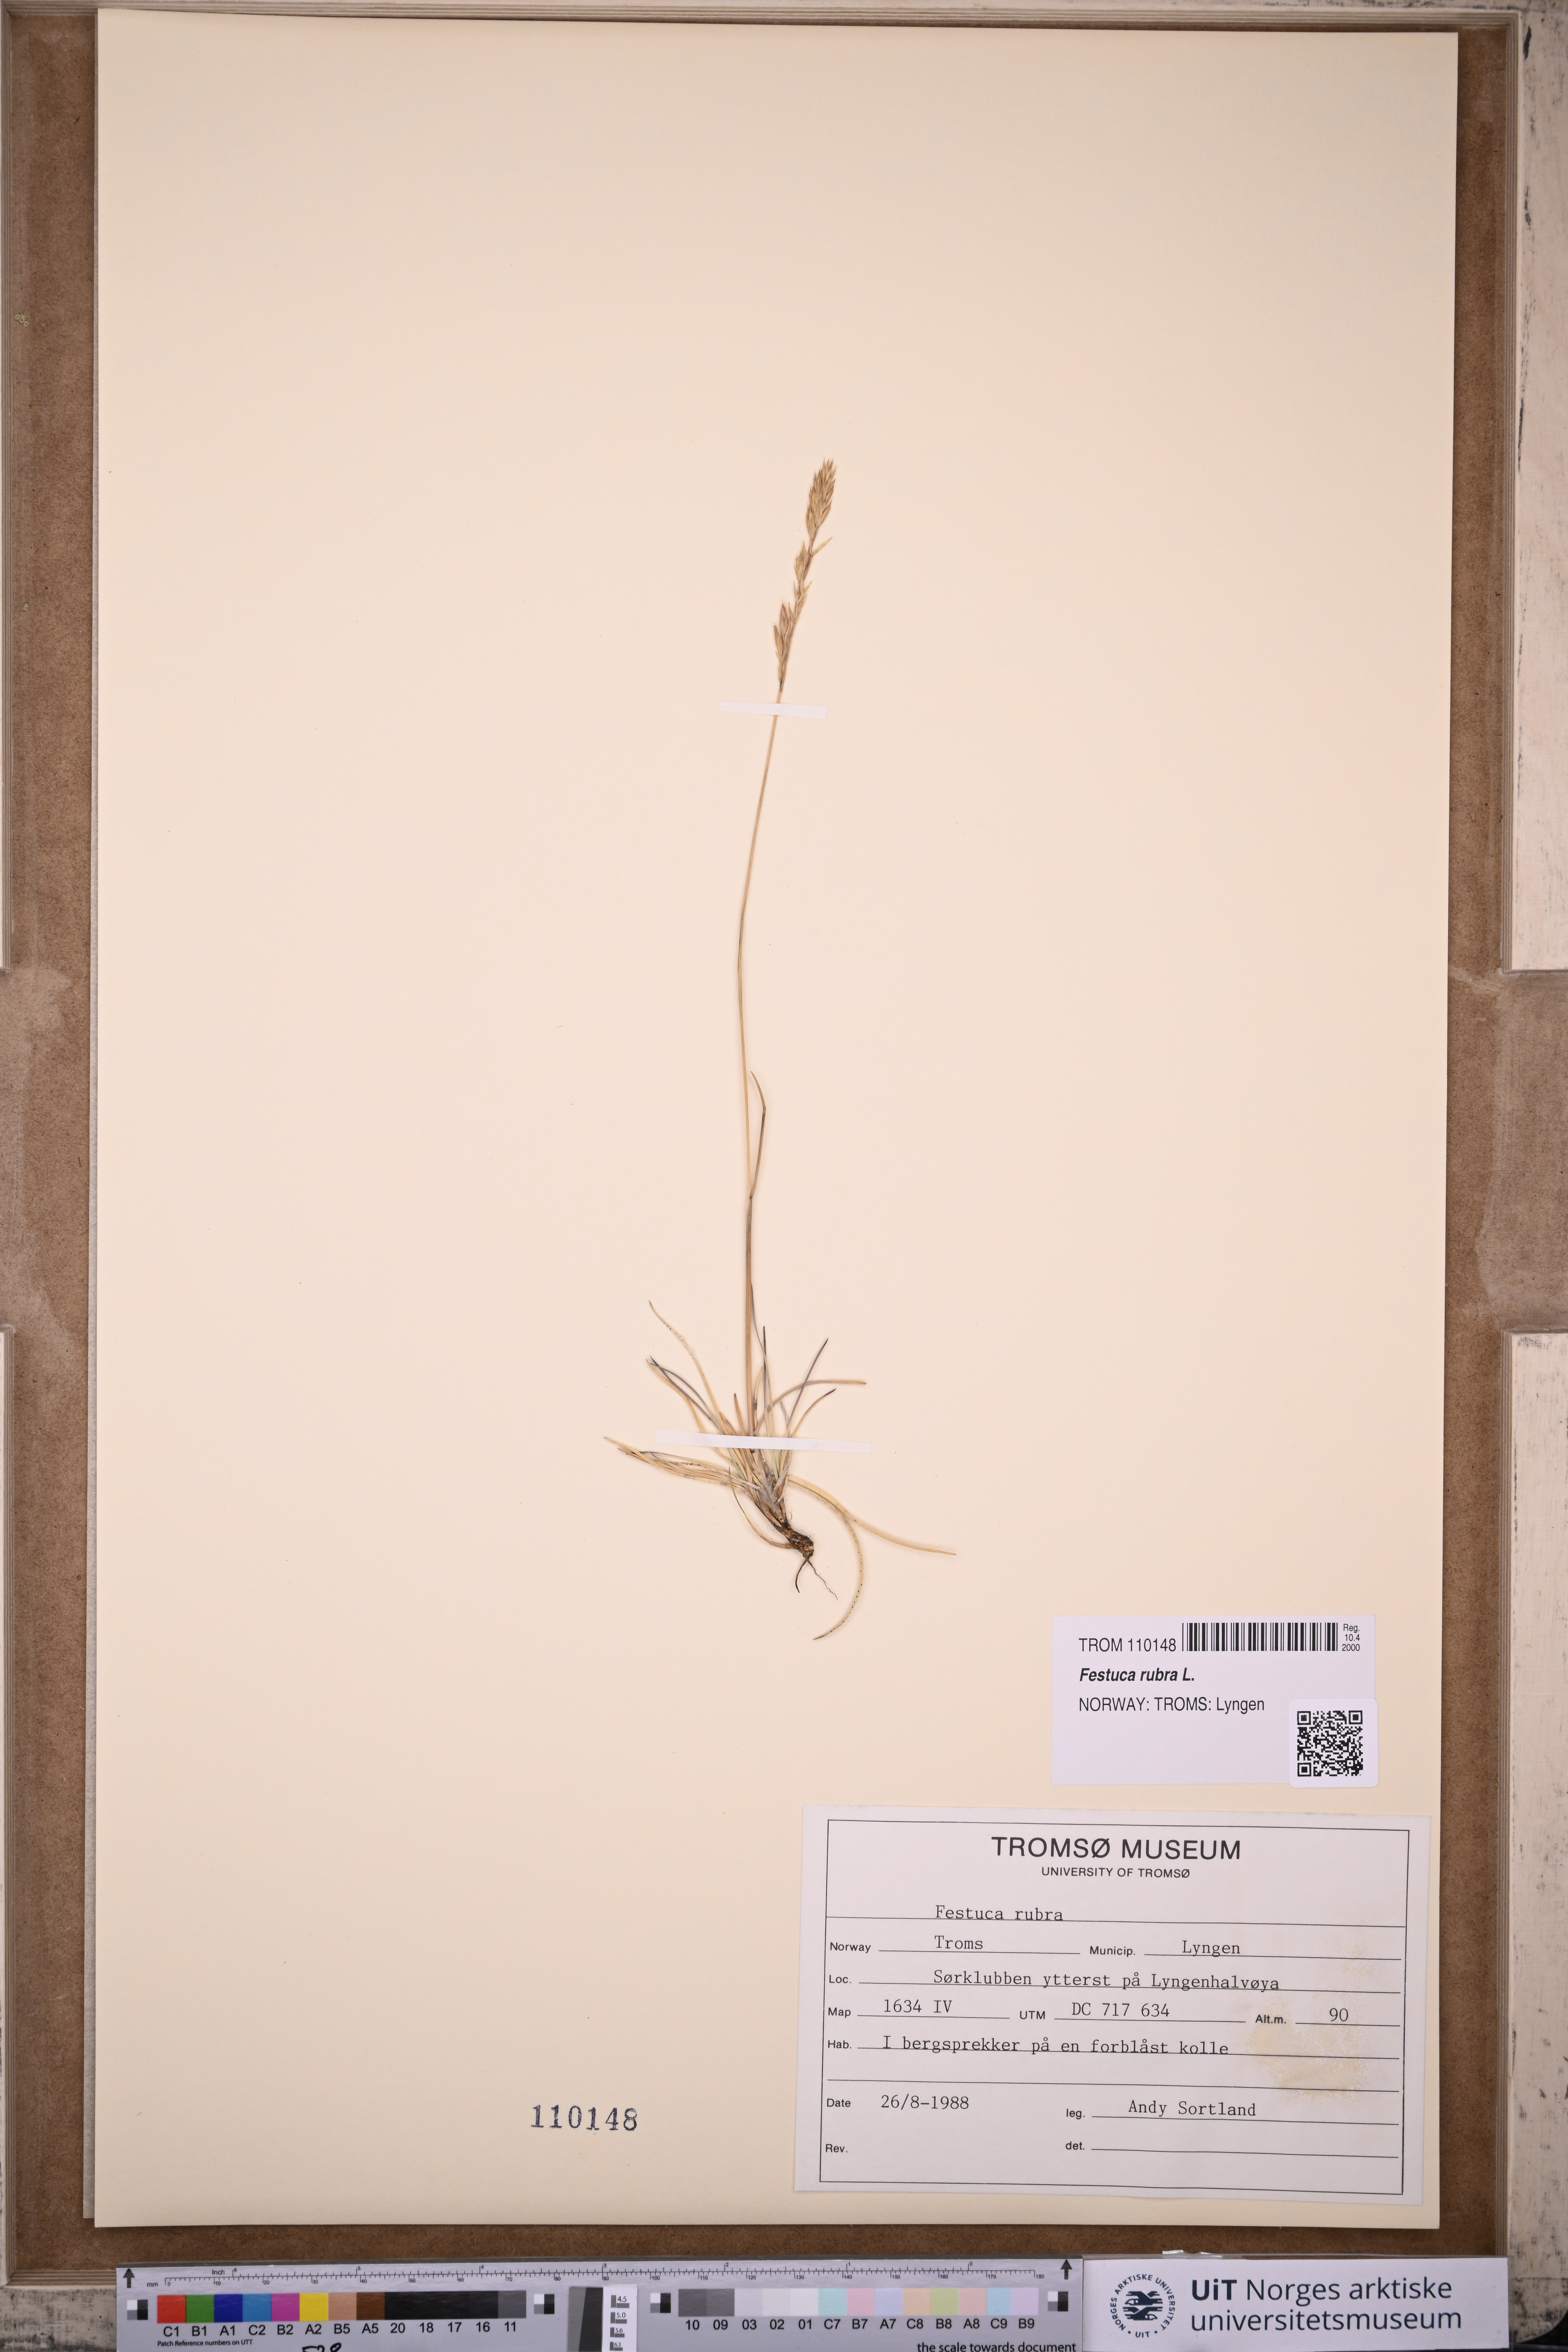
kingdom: Plantae
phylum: Tracheophyta
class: Liliopsida
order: Poales
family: Poaceae
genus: Festuca
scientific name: Festuca rubra
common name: Red fescue
